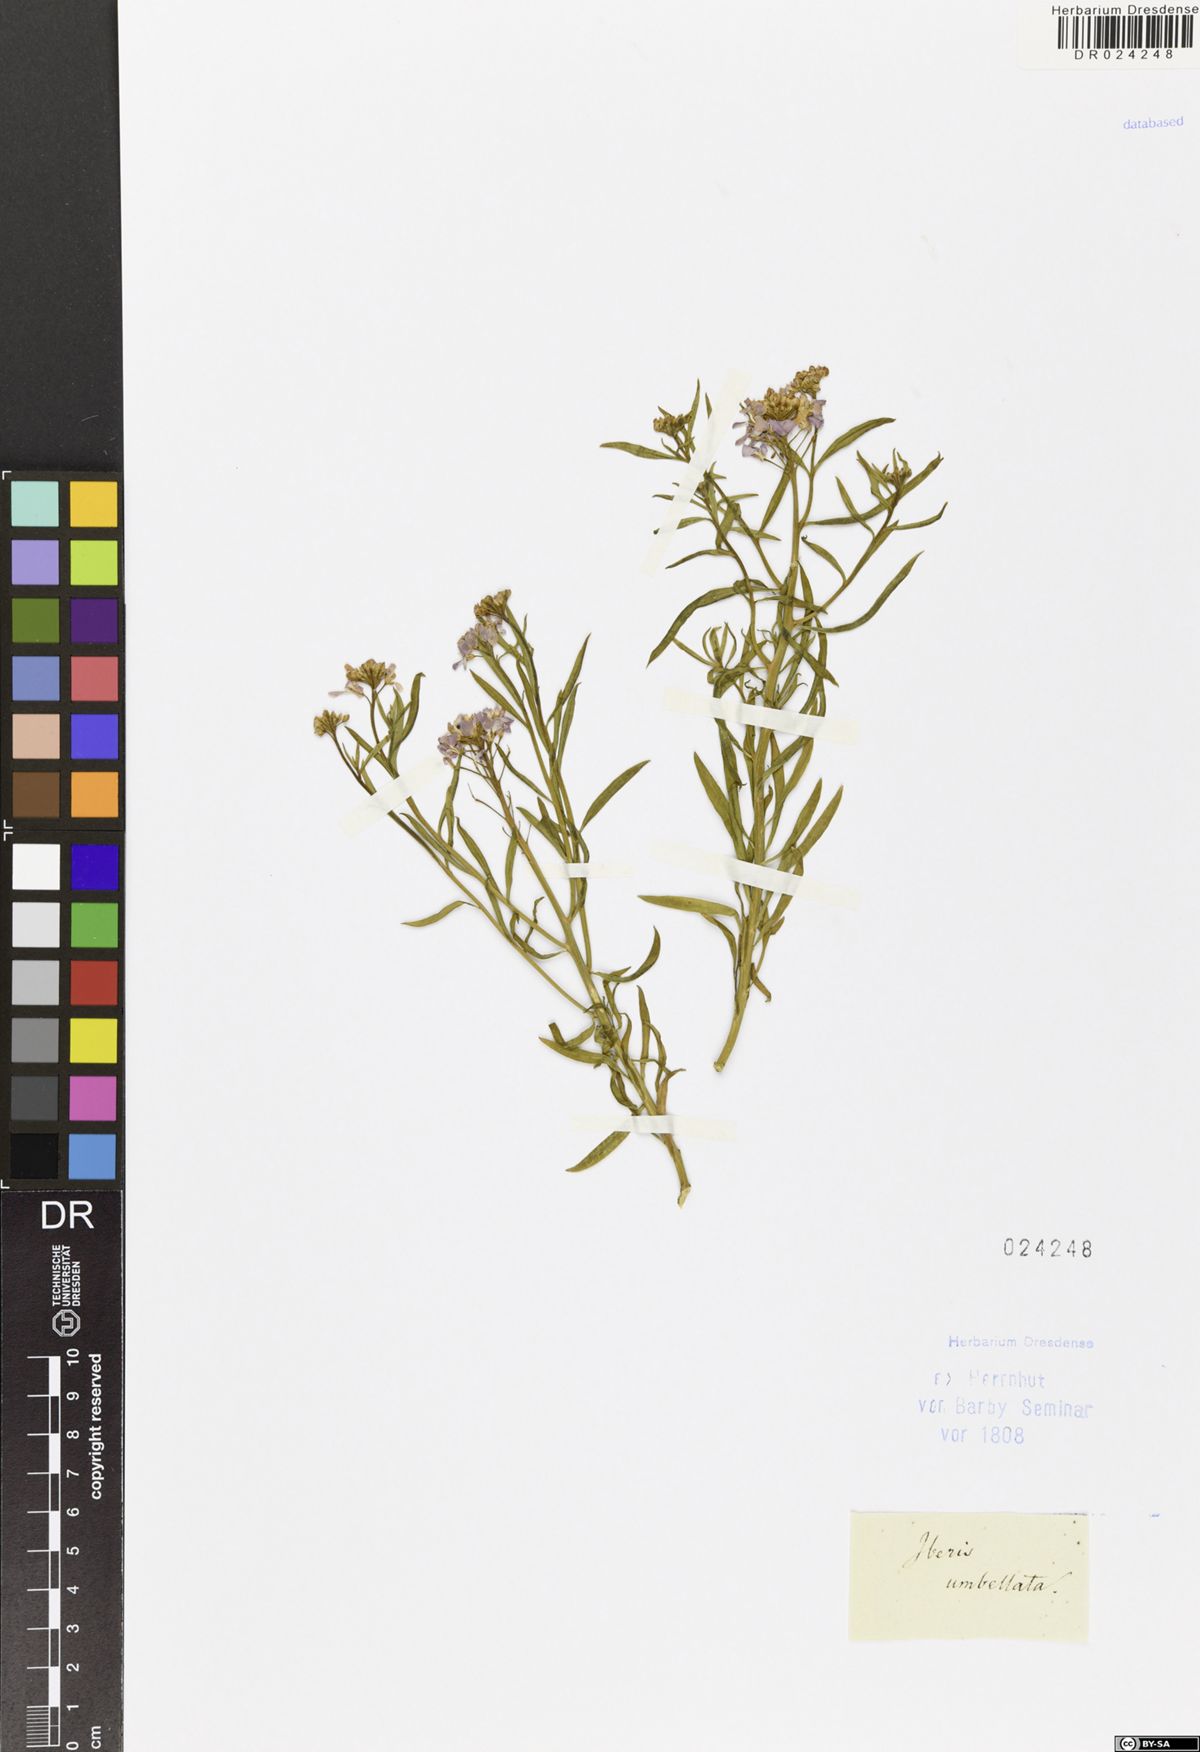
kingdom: Plantae
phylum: Tracheophyta
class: Magnoliopsida
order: Brassicales
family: Brassicaceae
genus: Iberis
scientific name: Iberis umbellata
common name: Globe candytuft
